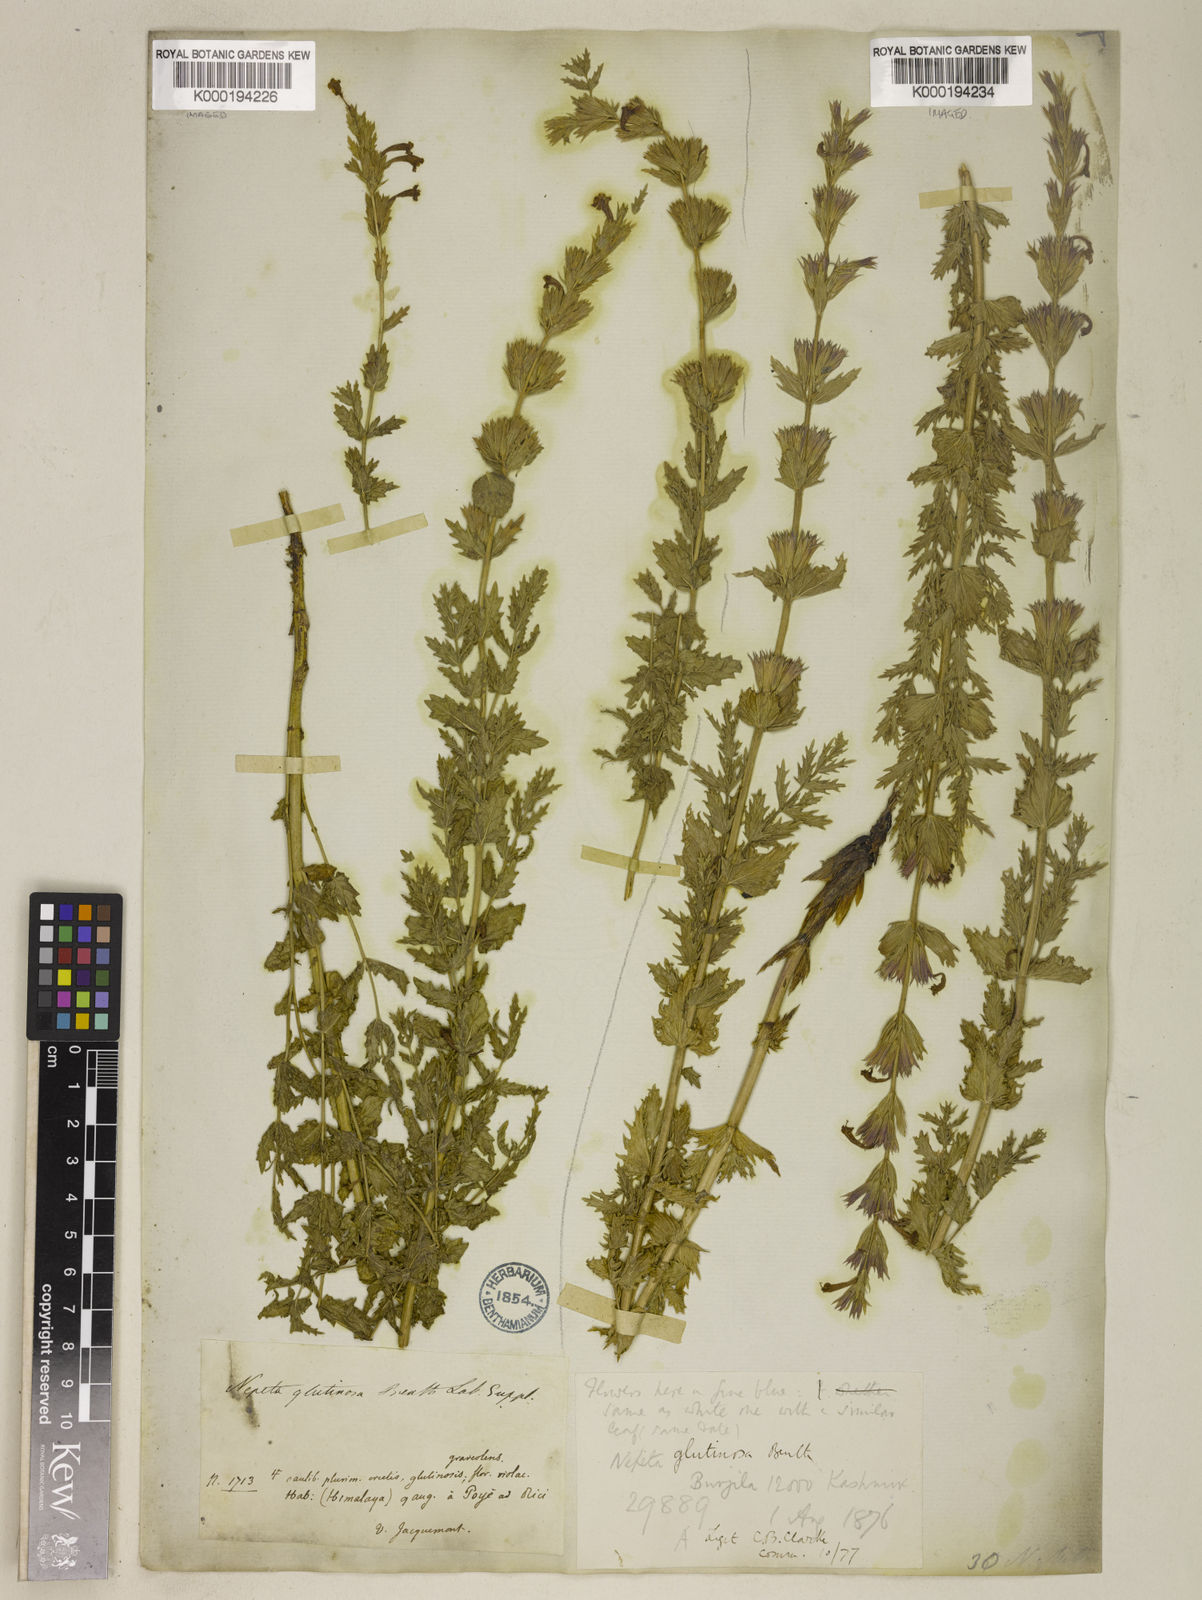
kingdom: Plantae
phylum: Tracheophyta
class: Magnoliopsida
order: Lamiales
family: Lamiaceae
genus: Nepeta
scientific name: Nepeta glutinosa
